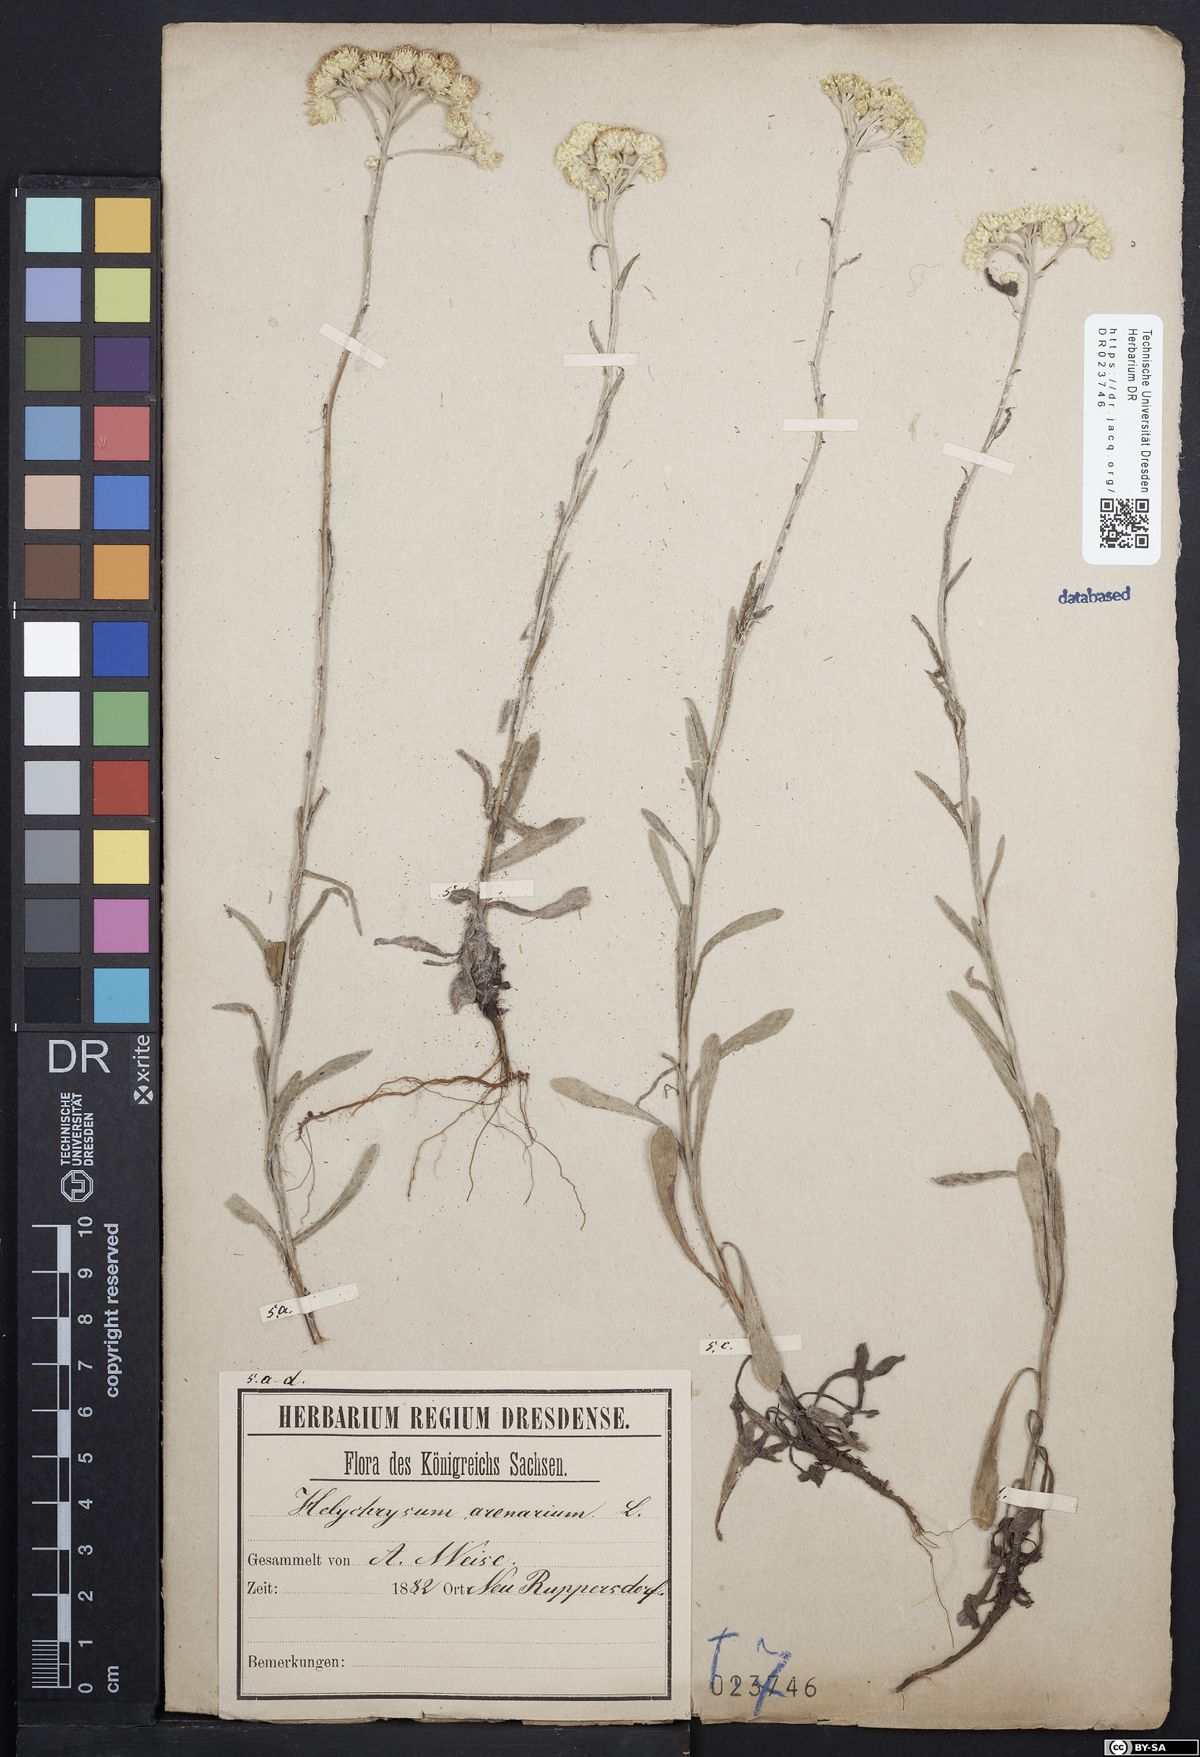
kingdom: Plantae
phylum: Tracheophyta
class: Magnoliopsida
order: Asterales
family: Asteraceae
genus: Helichrysum
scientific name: Helichrysum arenarium
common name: Strawflower
